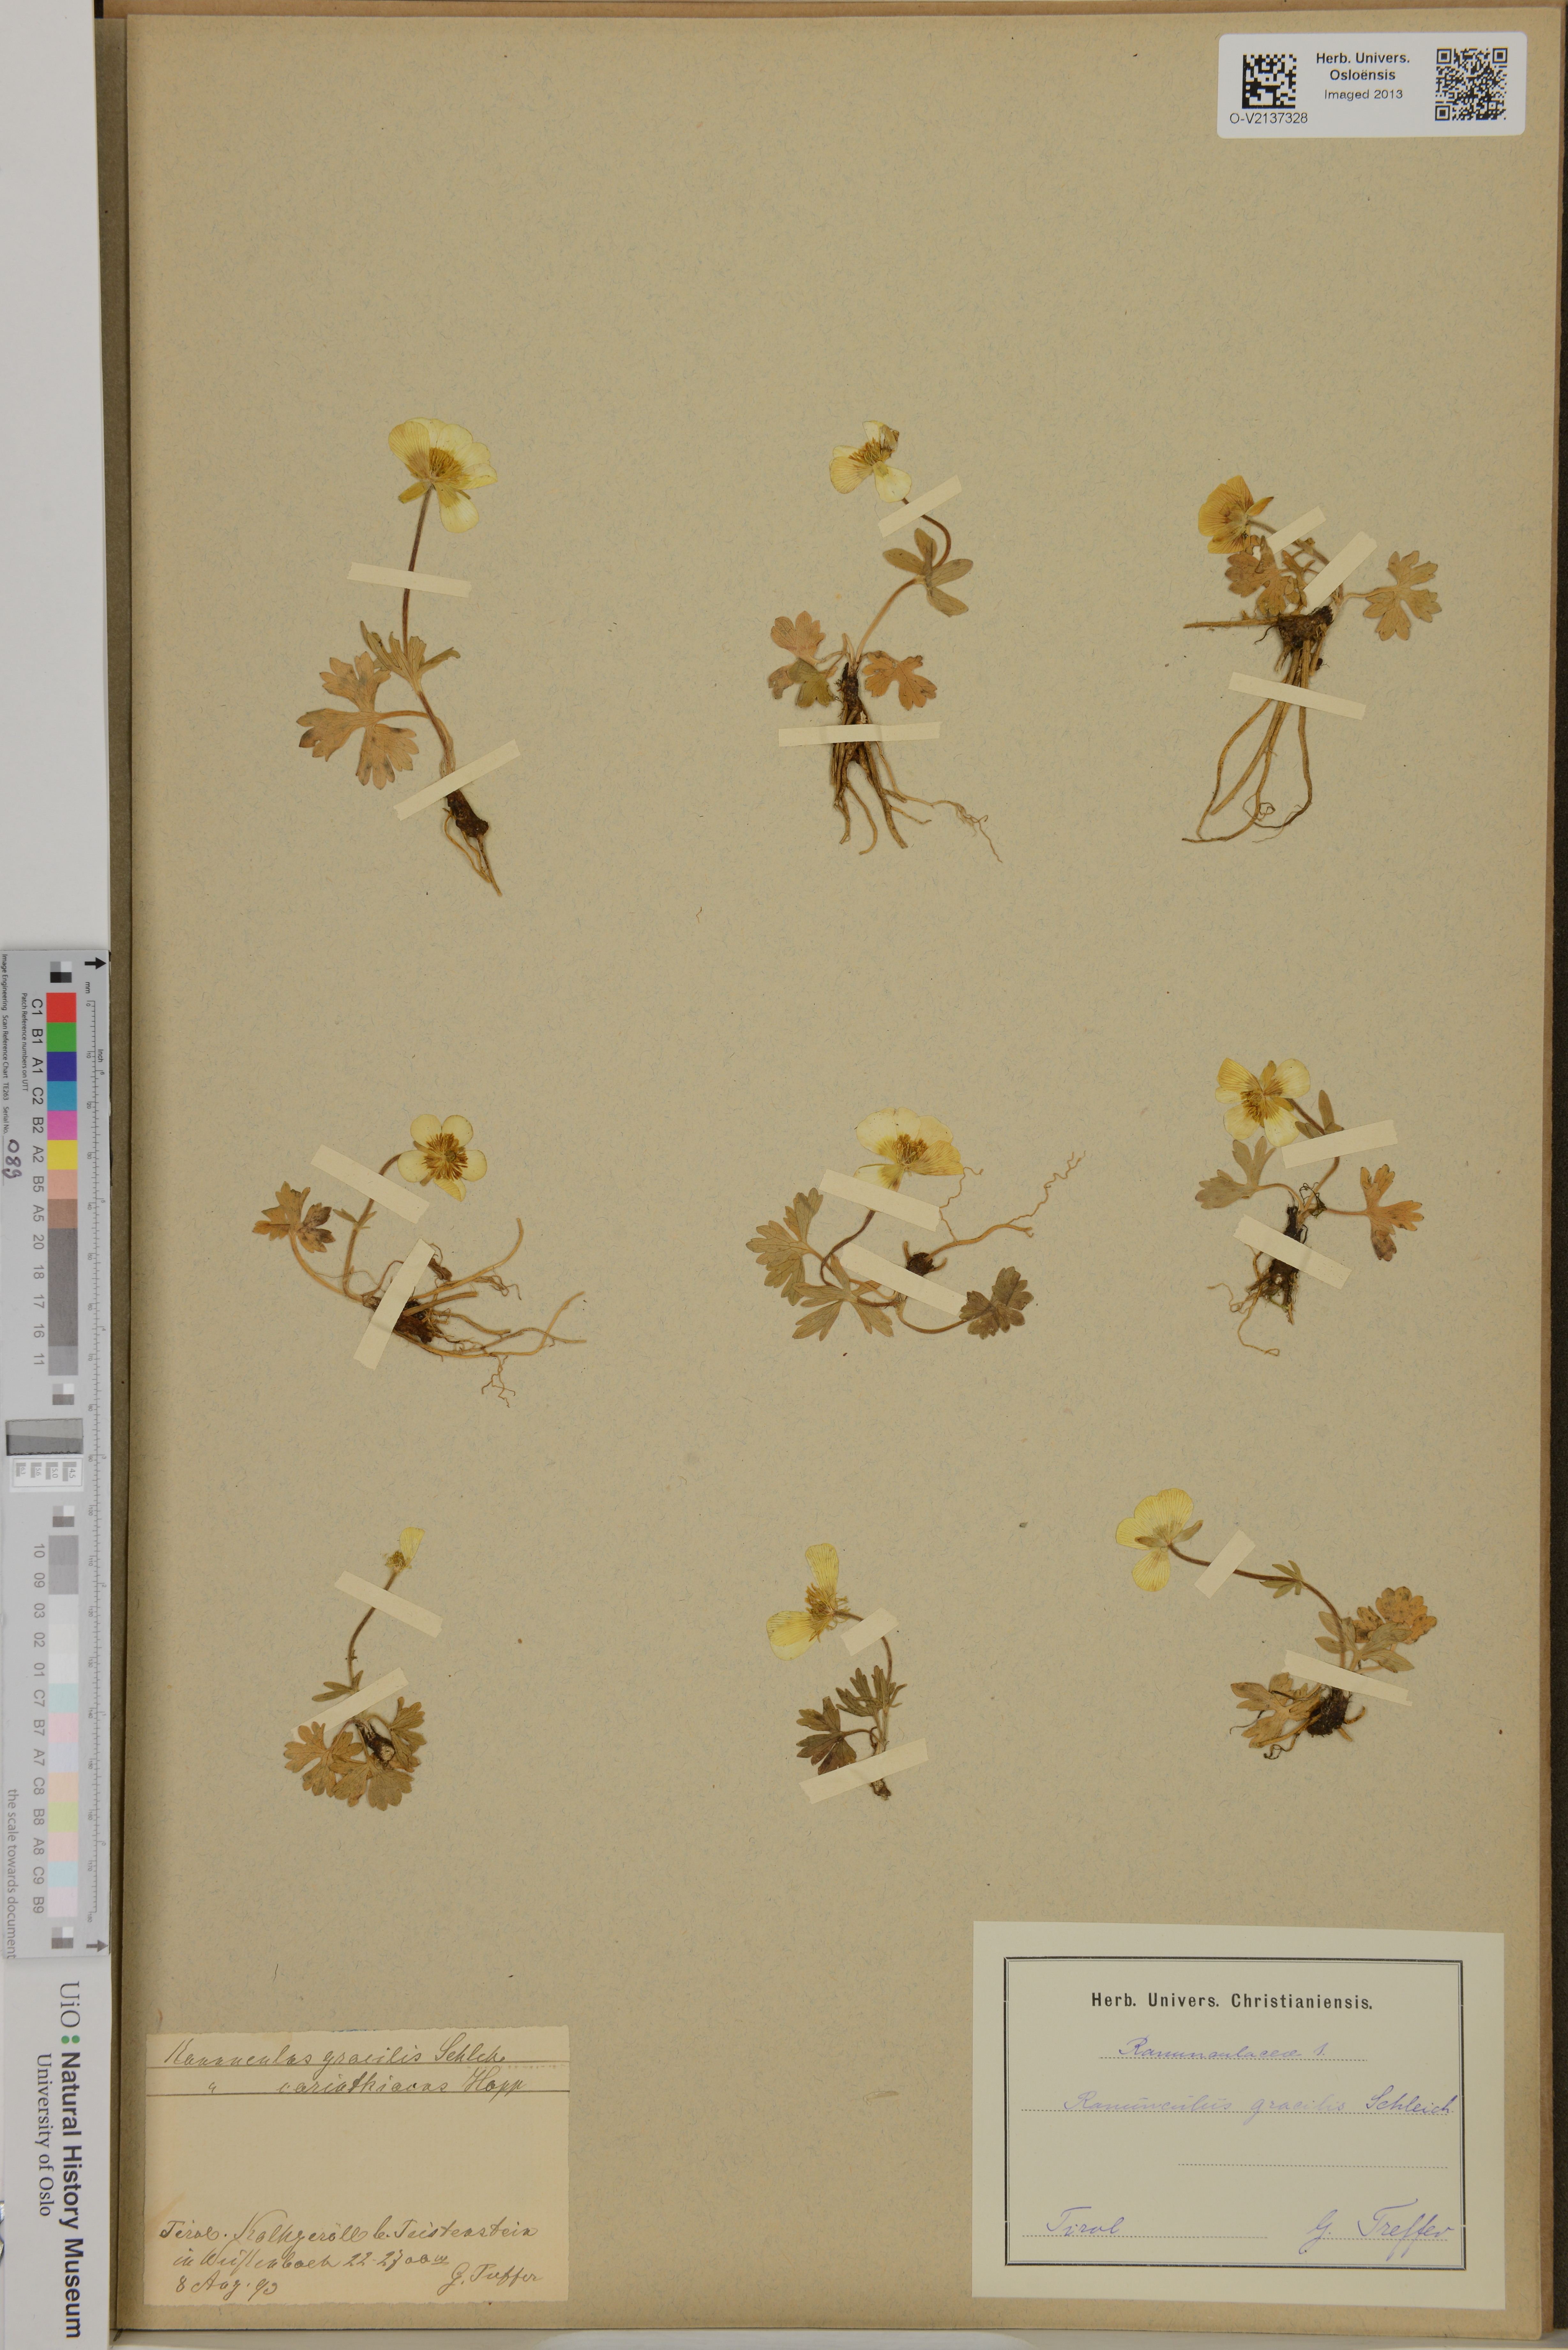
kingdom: Plantae
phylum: Tracheophyta
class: Magnoliopsida
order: Ranunculales
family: Ranunculaceae
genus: Ranunculus
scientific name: Ranunculus gracilis
